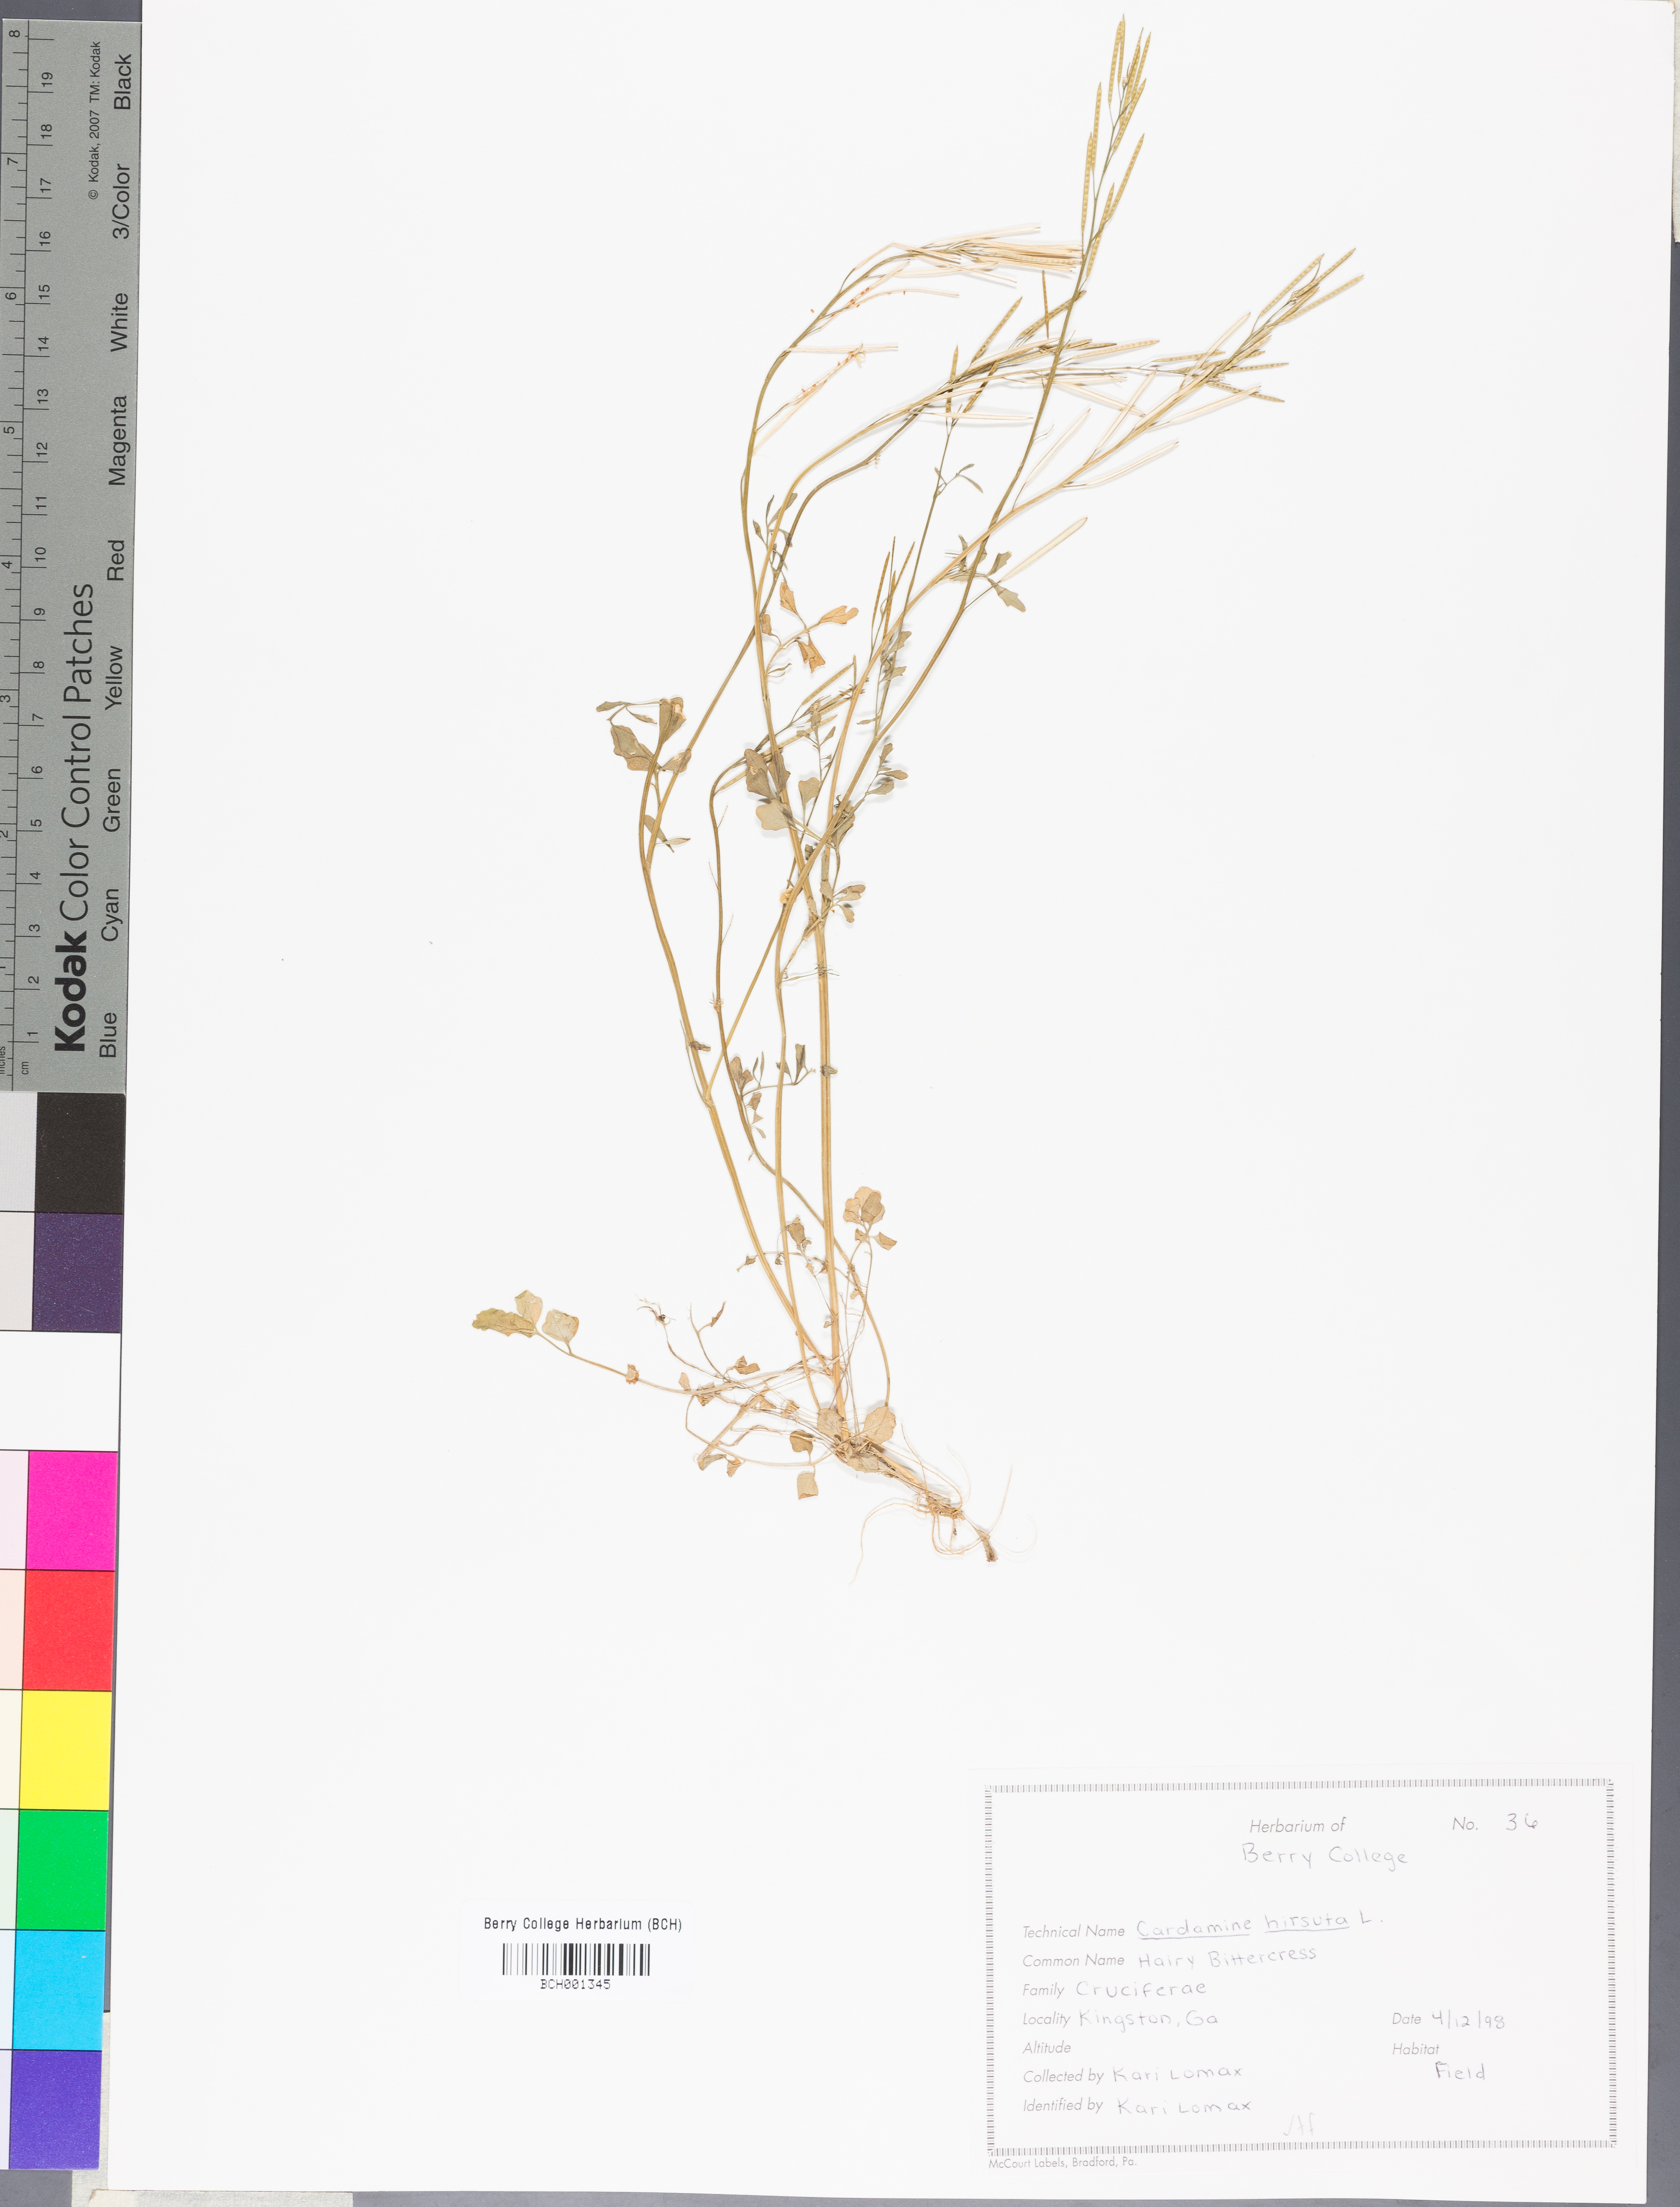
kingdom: Plantae
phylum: Tracheophyta
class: Magnoliopsida
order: Brassicales
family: Brassicaceae
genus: Cardamine
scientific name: Cardamine hirsuta
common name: Hairy bittercress
